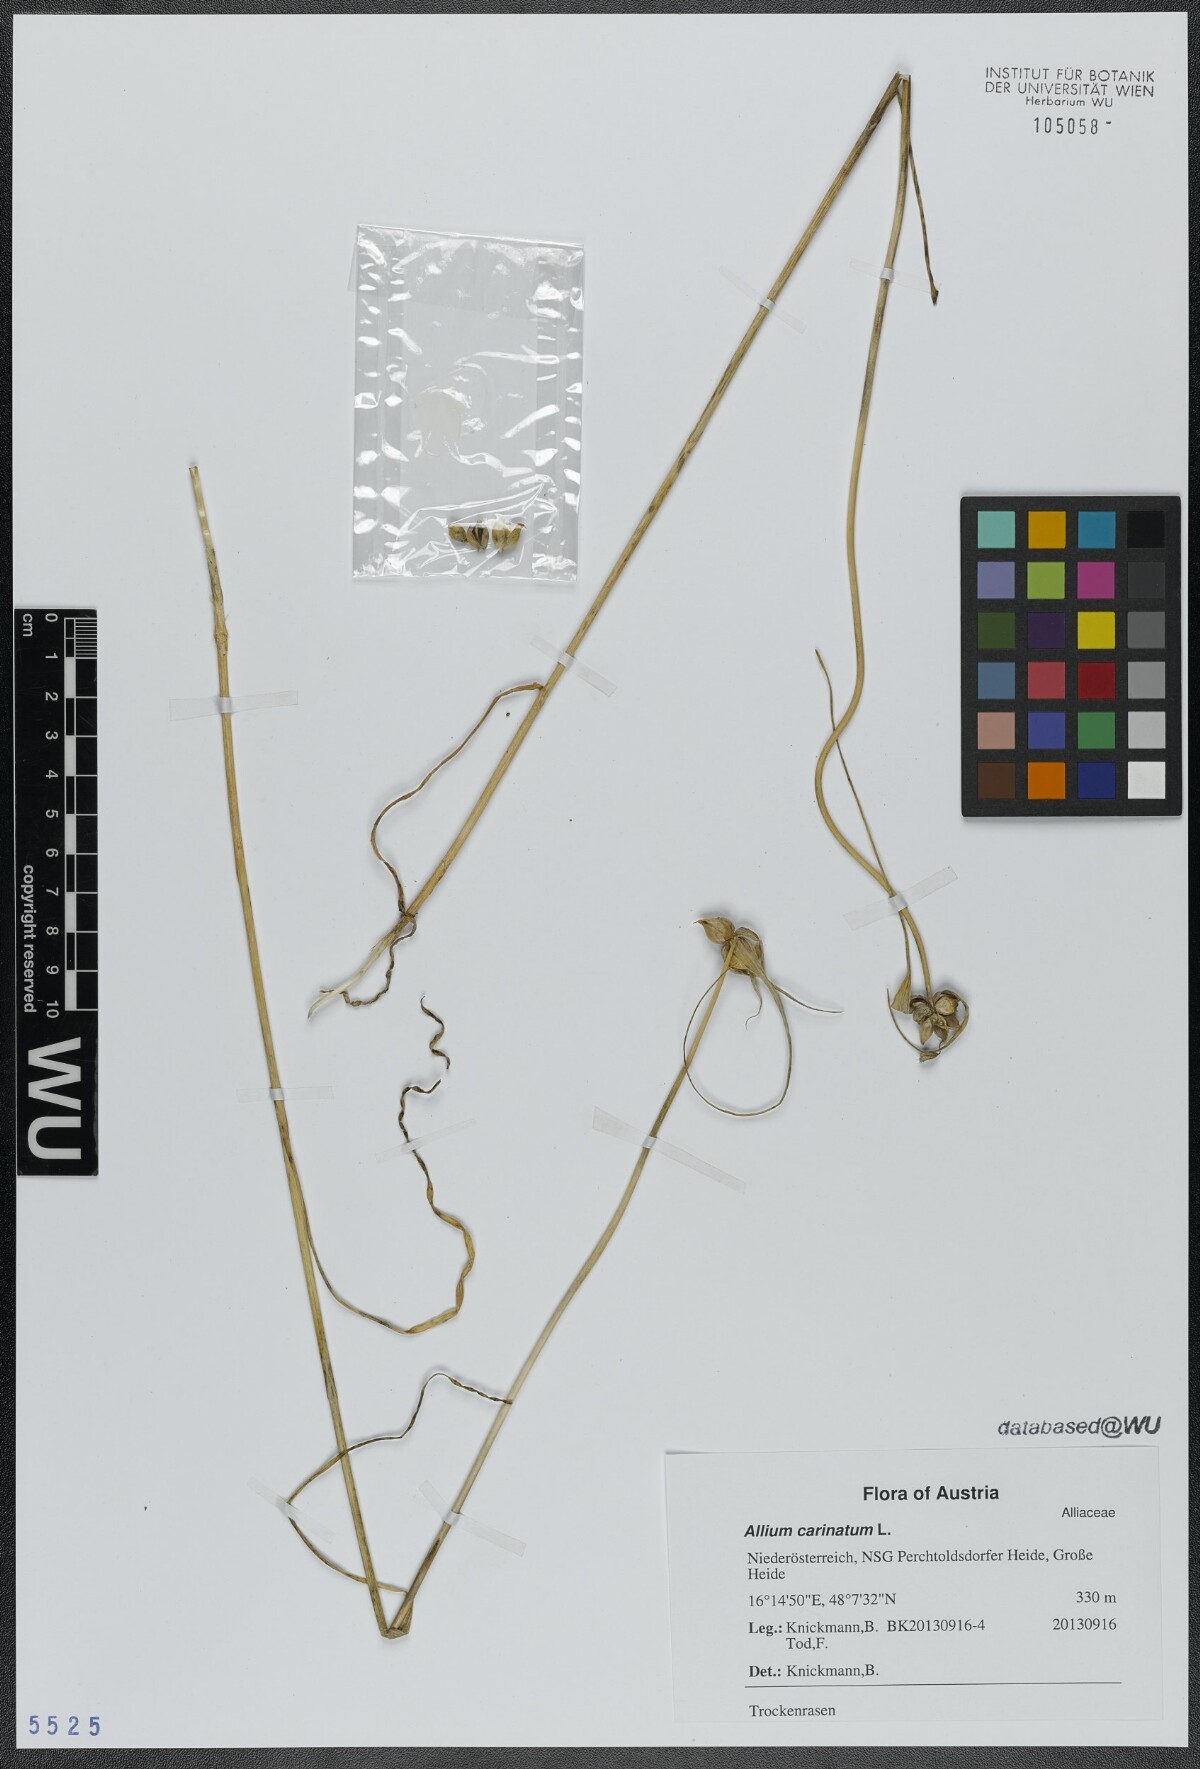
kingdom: Plantae
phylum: Tracheophyta
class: Liliopsida
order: Asparagales
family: Amaryllidaceae
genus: Allium
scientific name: Allium carinatum
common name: Keeled garlic
